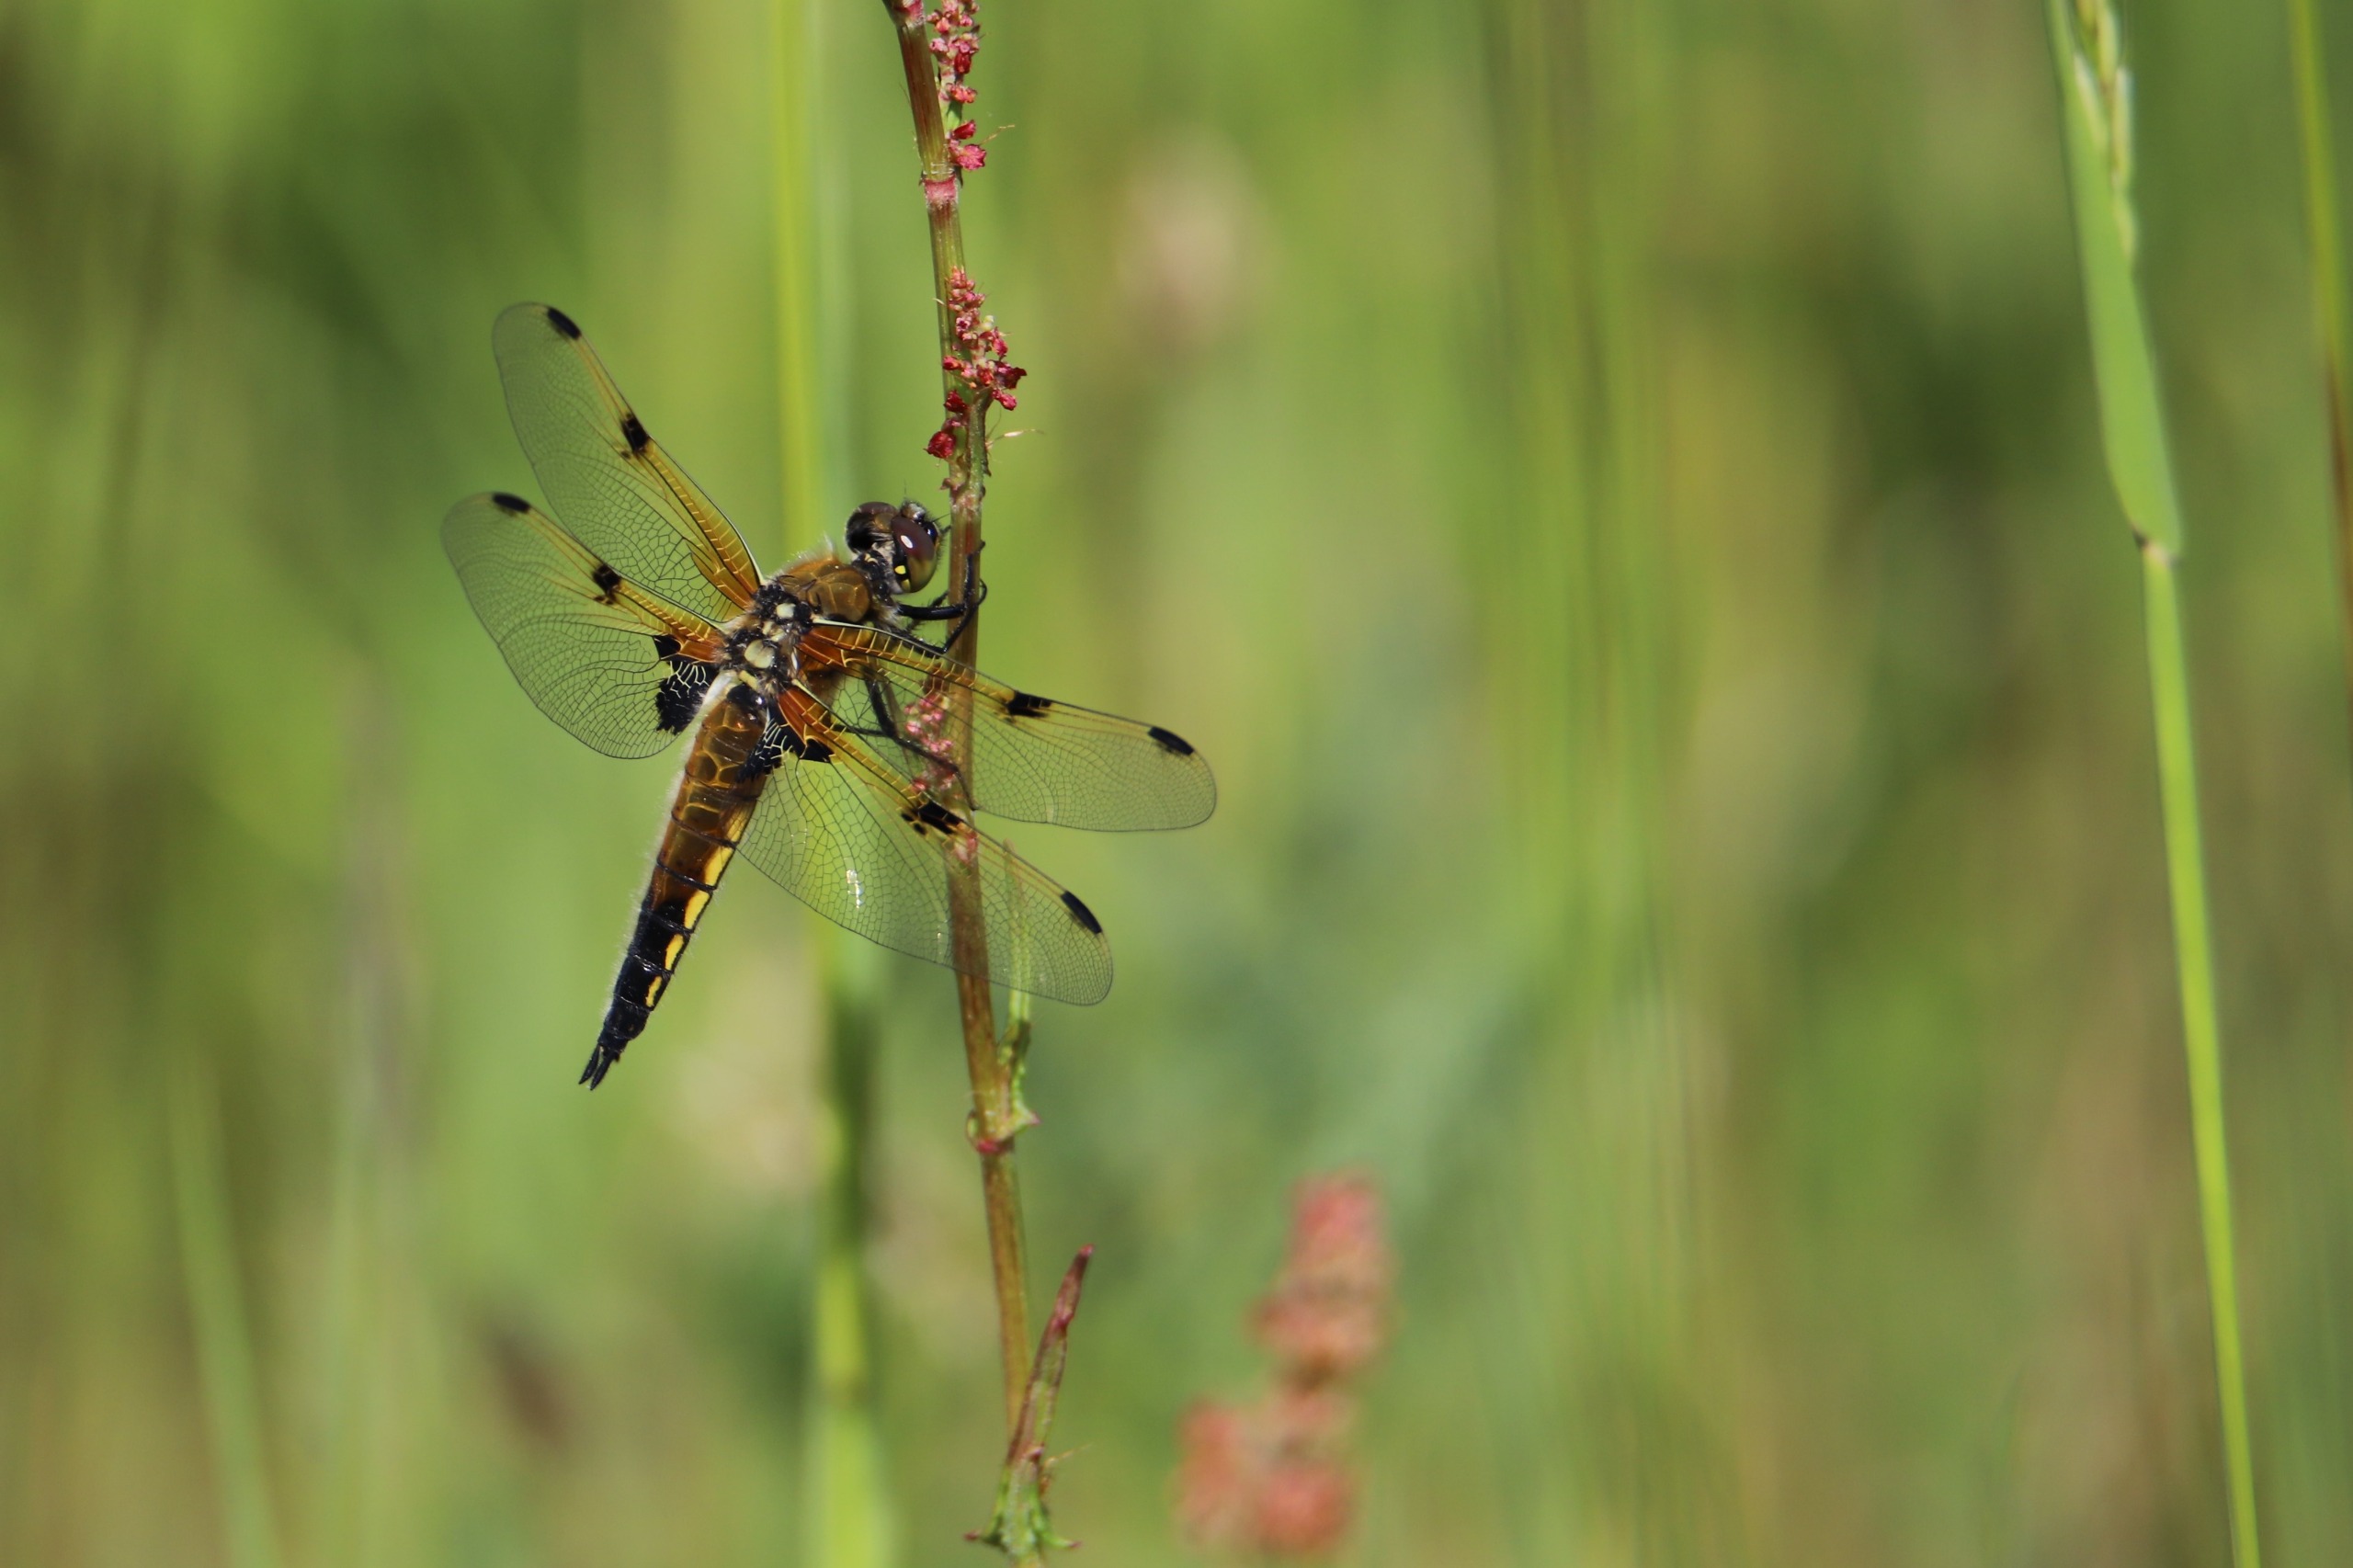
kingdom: Animalia
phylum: Arthropoda
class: Insecta
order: Odonata
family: Libellulidae
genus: Libellula
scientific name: Libellula quadrimaculata
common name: Fireplettet libel
